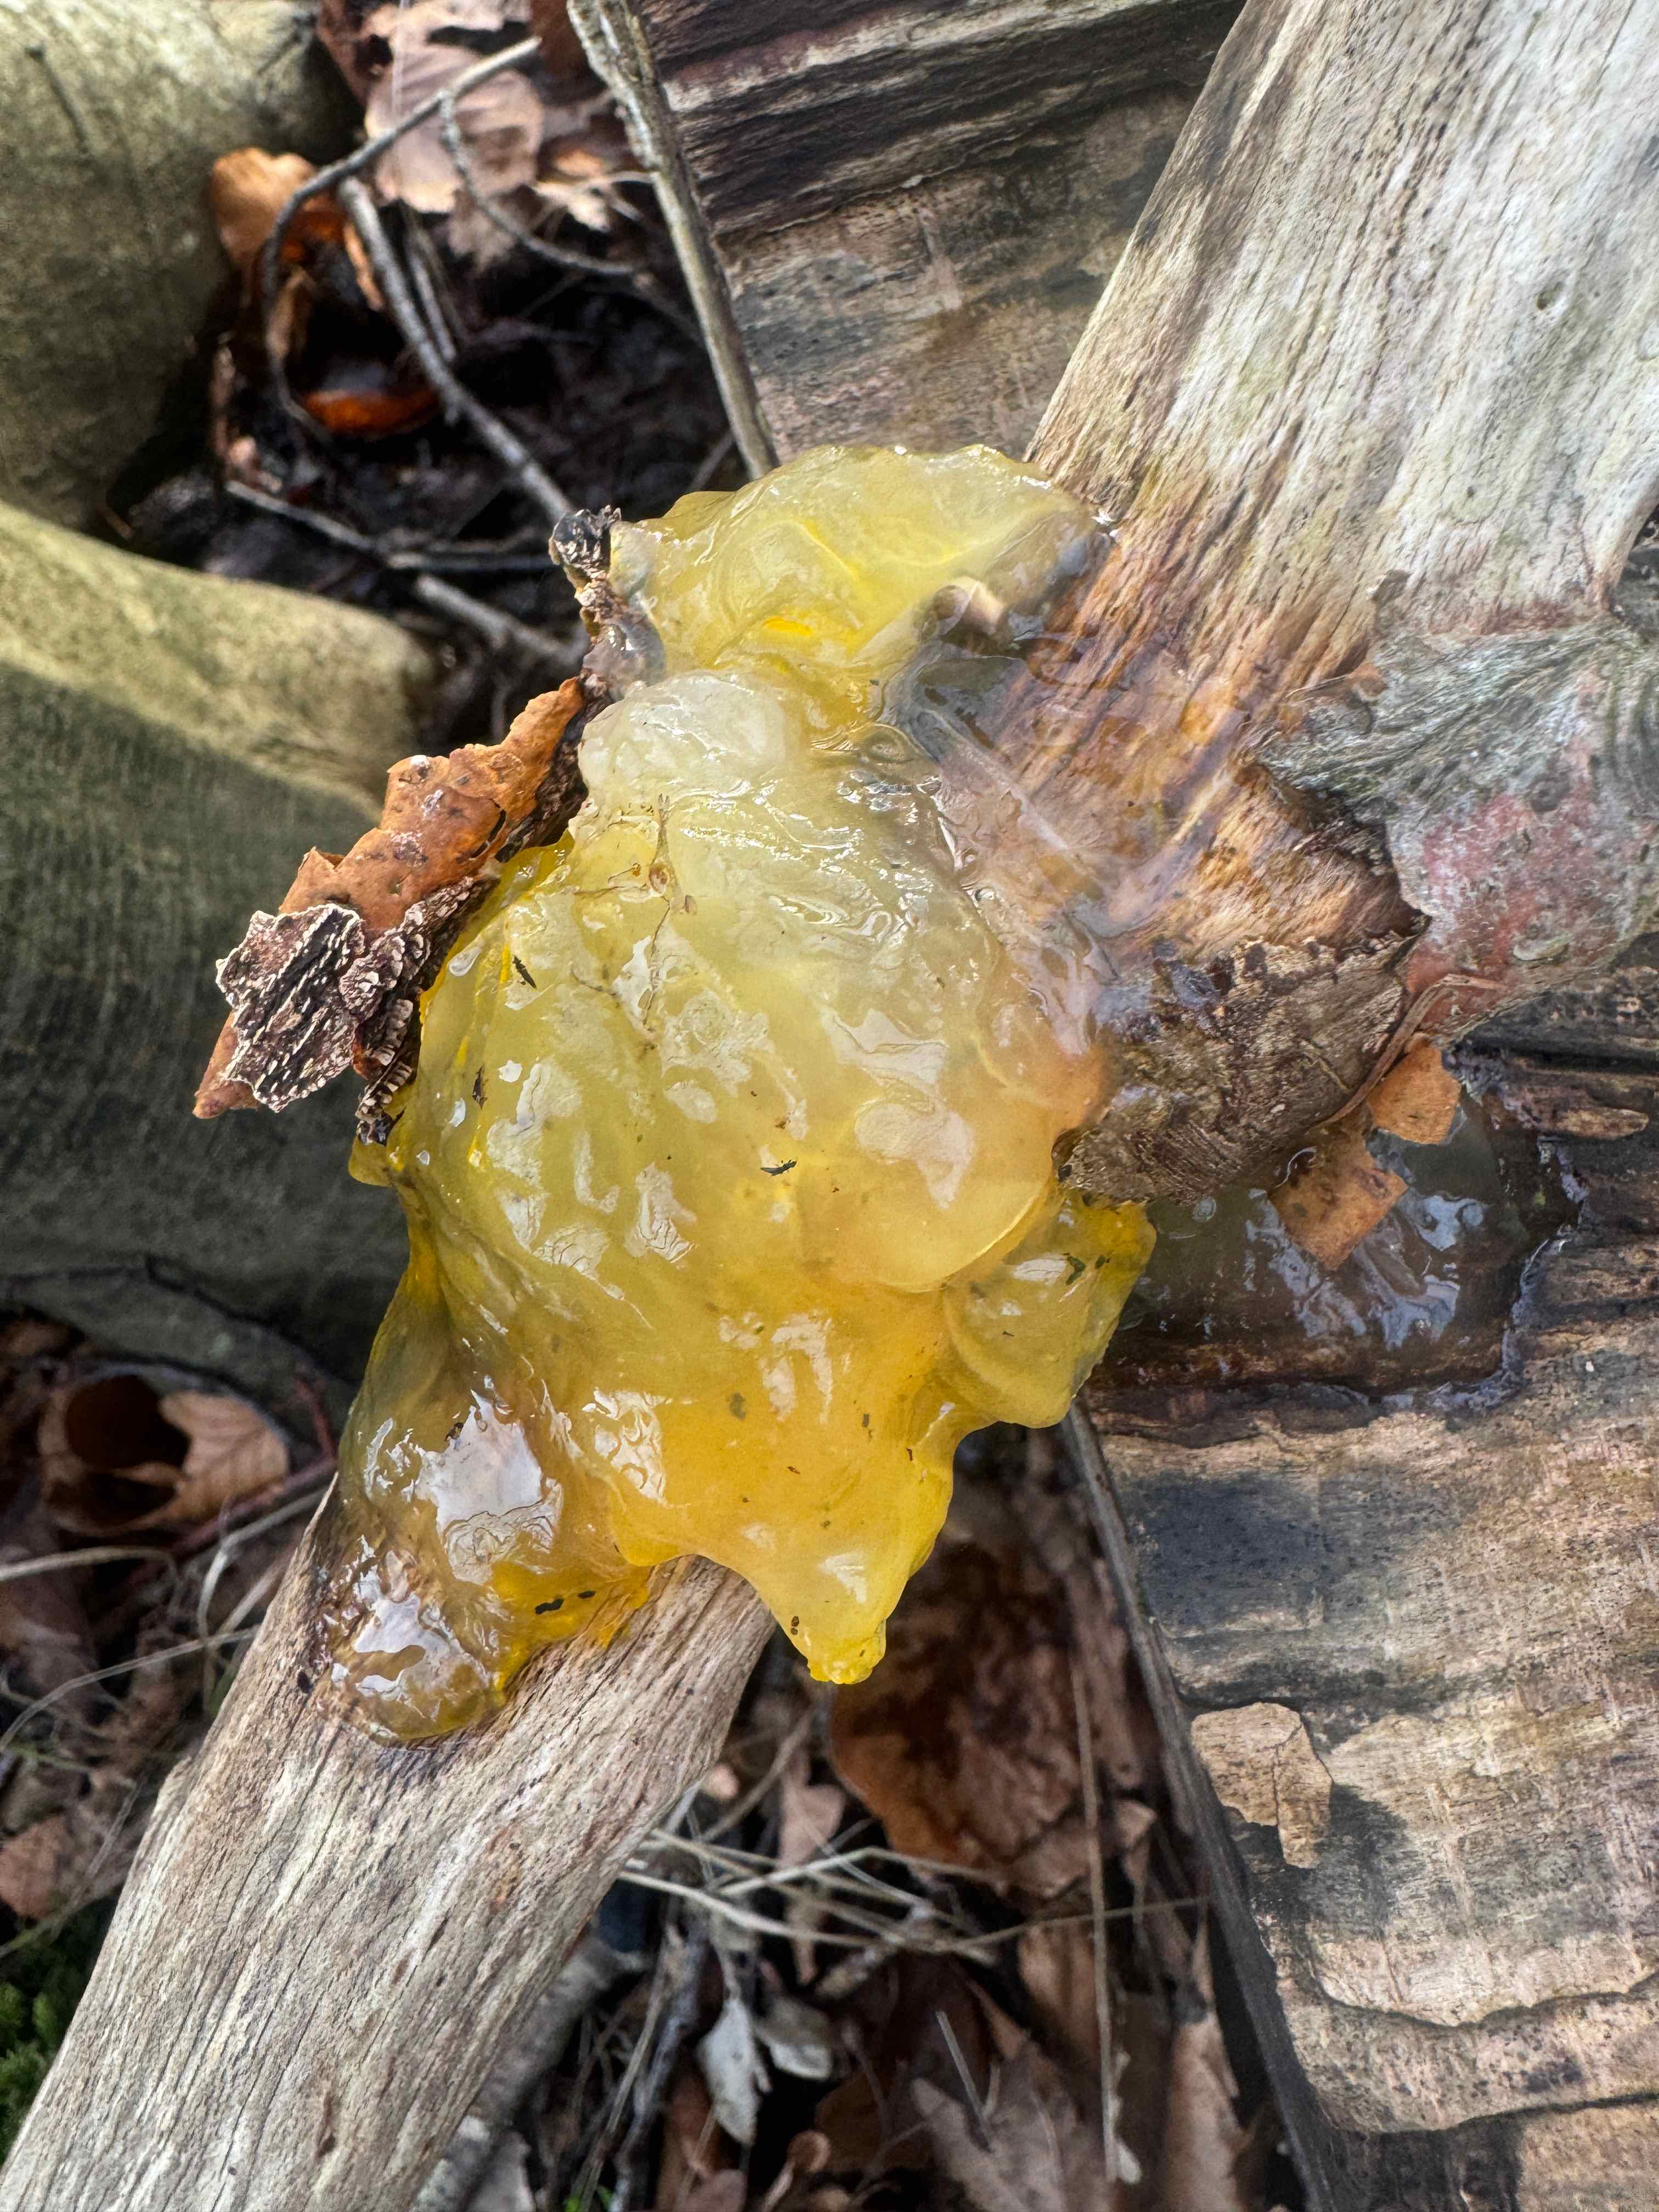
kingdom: Fungi
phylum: Basidiomycota
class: Tremellomycetes
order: Tremellales
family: Tremellaceae
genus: Tremella
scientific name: Tremella mesenterica
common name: gul bævresvamp
